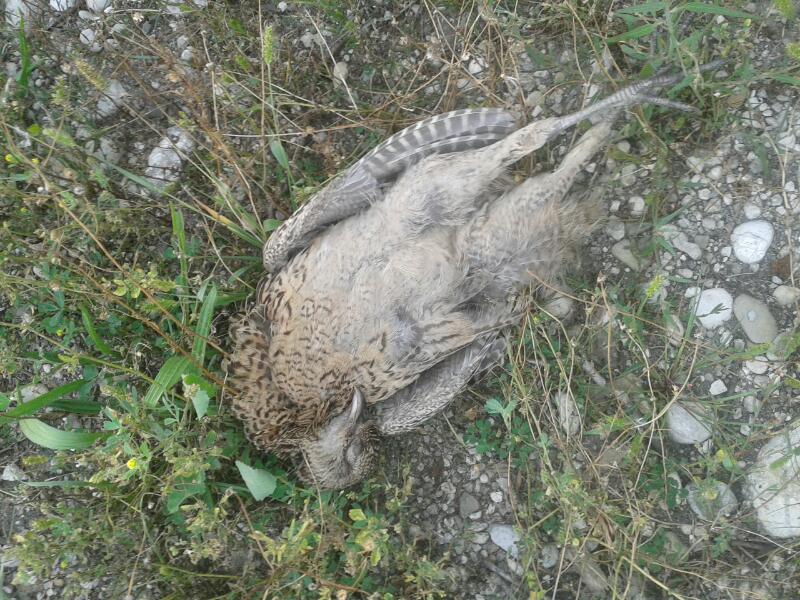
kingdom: Animalia
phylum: Chordata
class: Aves
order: Galliformes
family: Phasianidae
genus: Phasianus
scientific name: Phasianus colchicus
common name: Common pheasant
